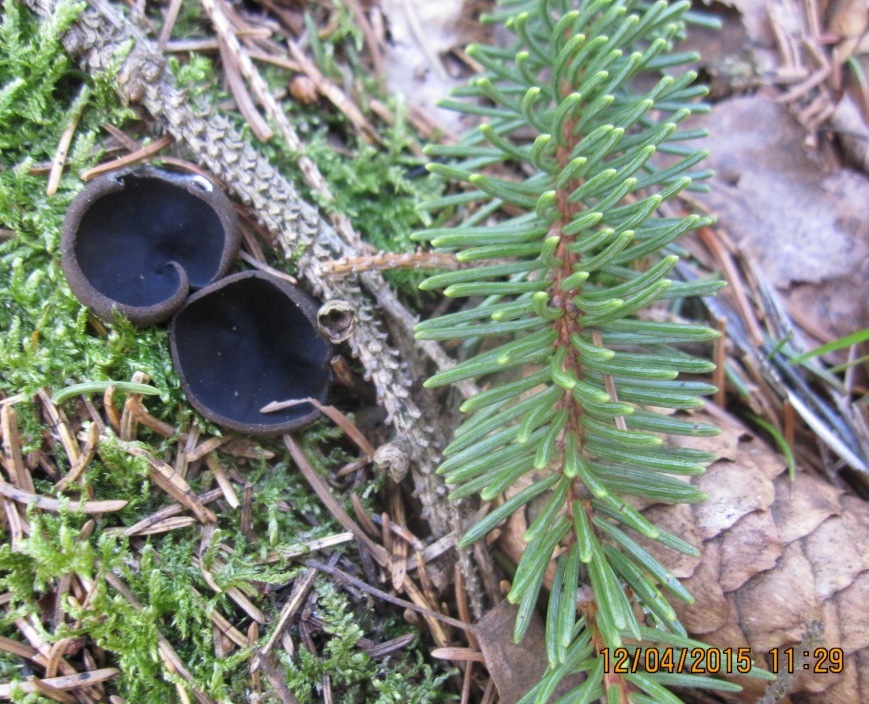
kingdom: Fungi
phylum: Ascomycota
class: Pezizomycetes
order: Pezizales
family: Sarcosomataceae
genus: Pseudoplectania
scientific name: Pseudoplectania nigrella
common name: almindelig sortbæger
